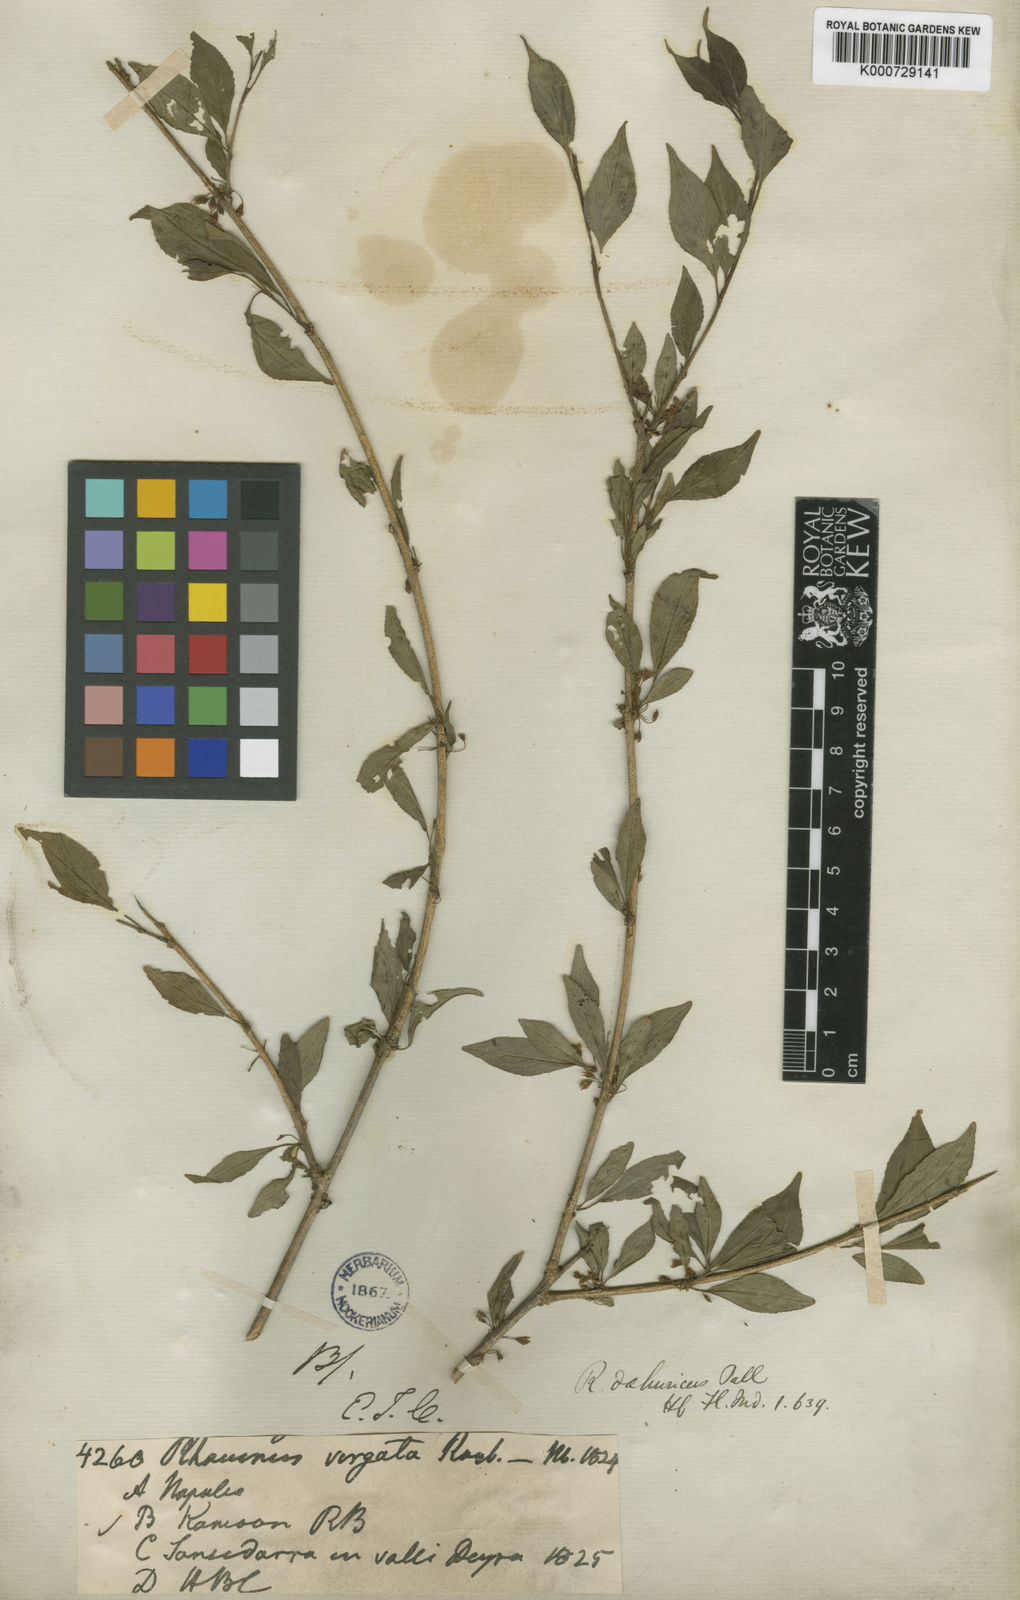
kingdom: Plantae
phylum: Tracheophyta
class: Magnoliopsida
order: Rosales
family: Rhamnaceae
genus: Rhamnus
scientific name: Rhamnus virgata
